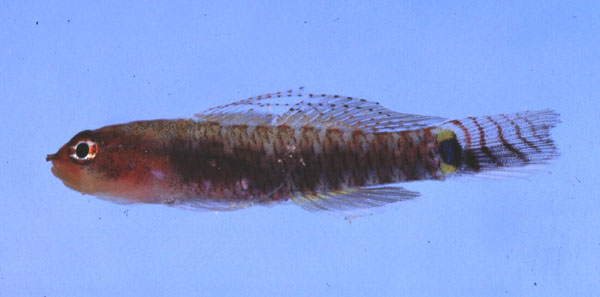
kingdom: Animalia
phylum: Chordata
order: Perciformes
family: Gobiidae
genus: Eviota
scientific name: Eviota zebrina
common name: Five-bar pygmy-goby
